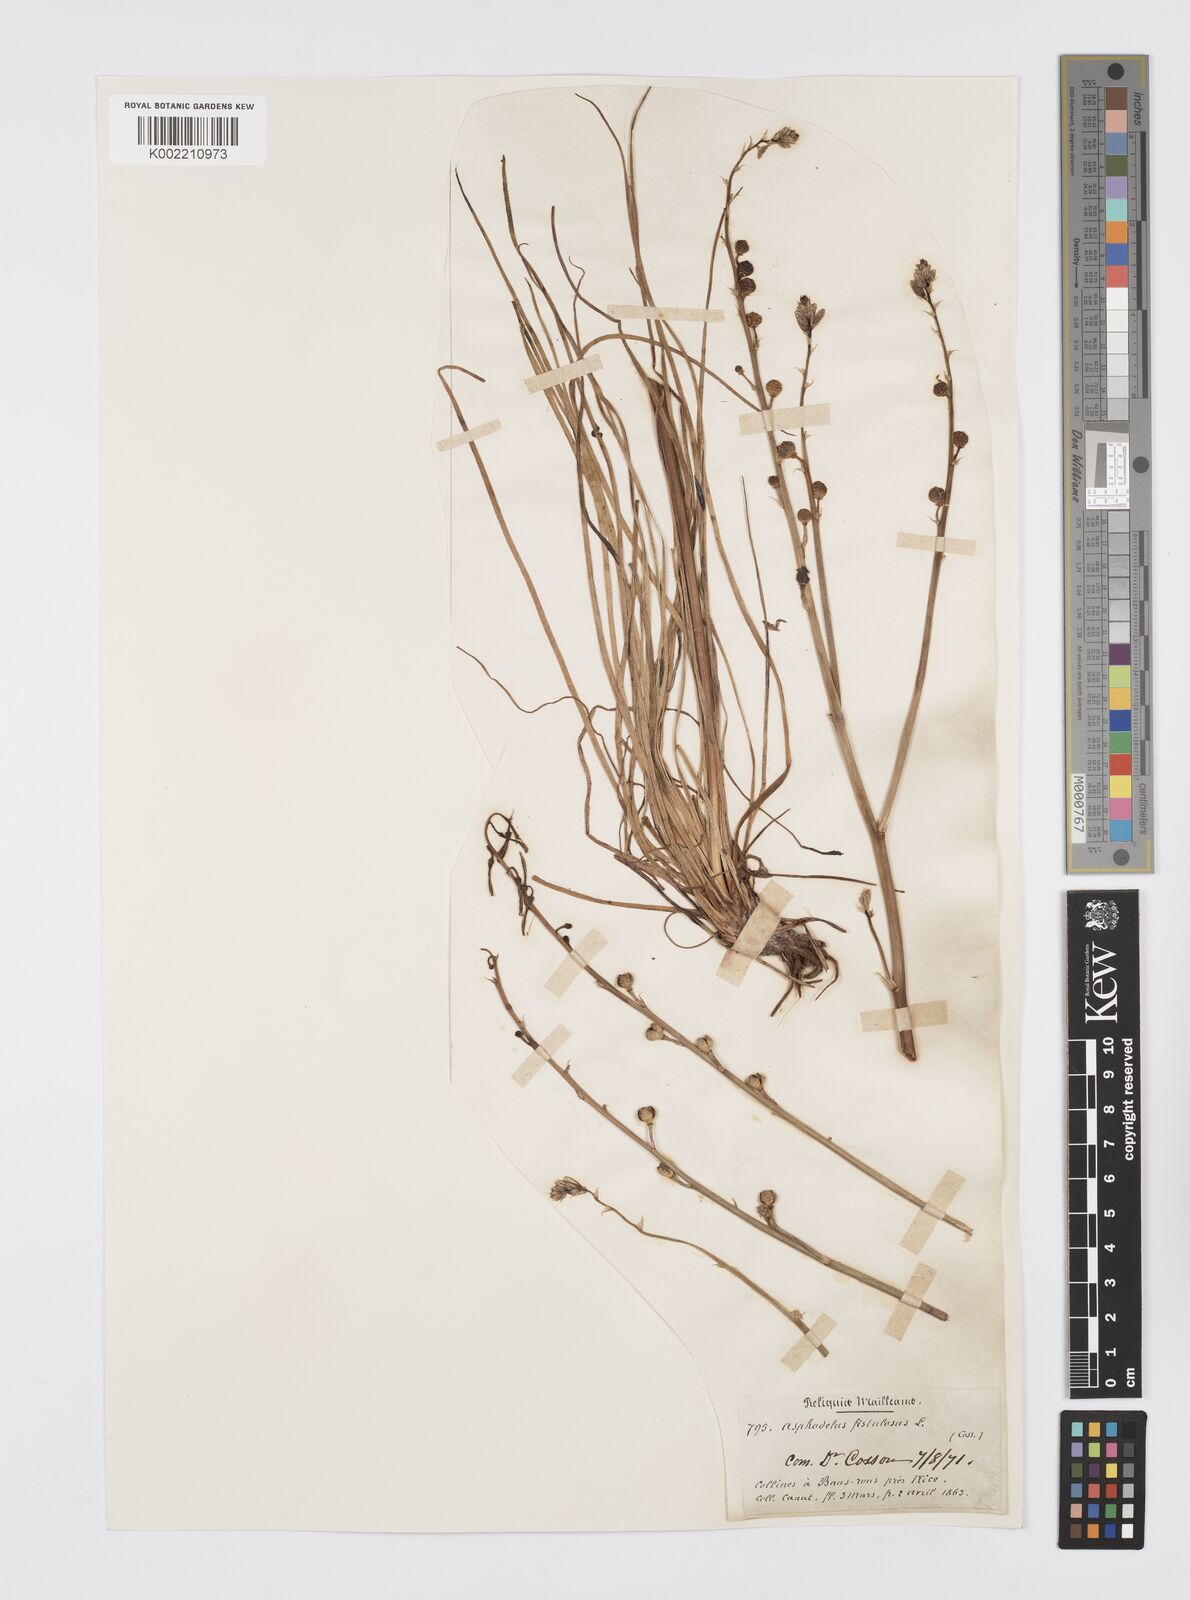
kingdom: Plantae
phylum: Tracheophyta
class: Liliopsida
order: Asparagales
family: Asphodelaceae
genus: Asphodelus
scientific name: Asphodelus fistulosus
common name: Onionweed
